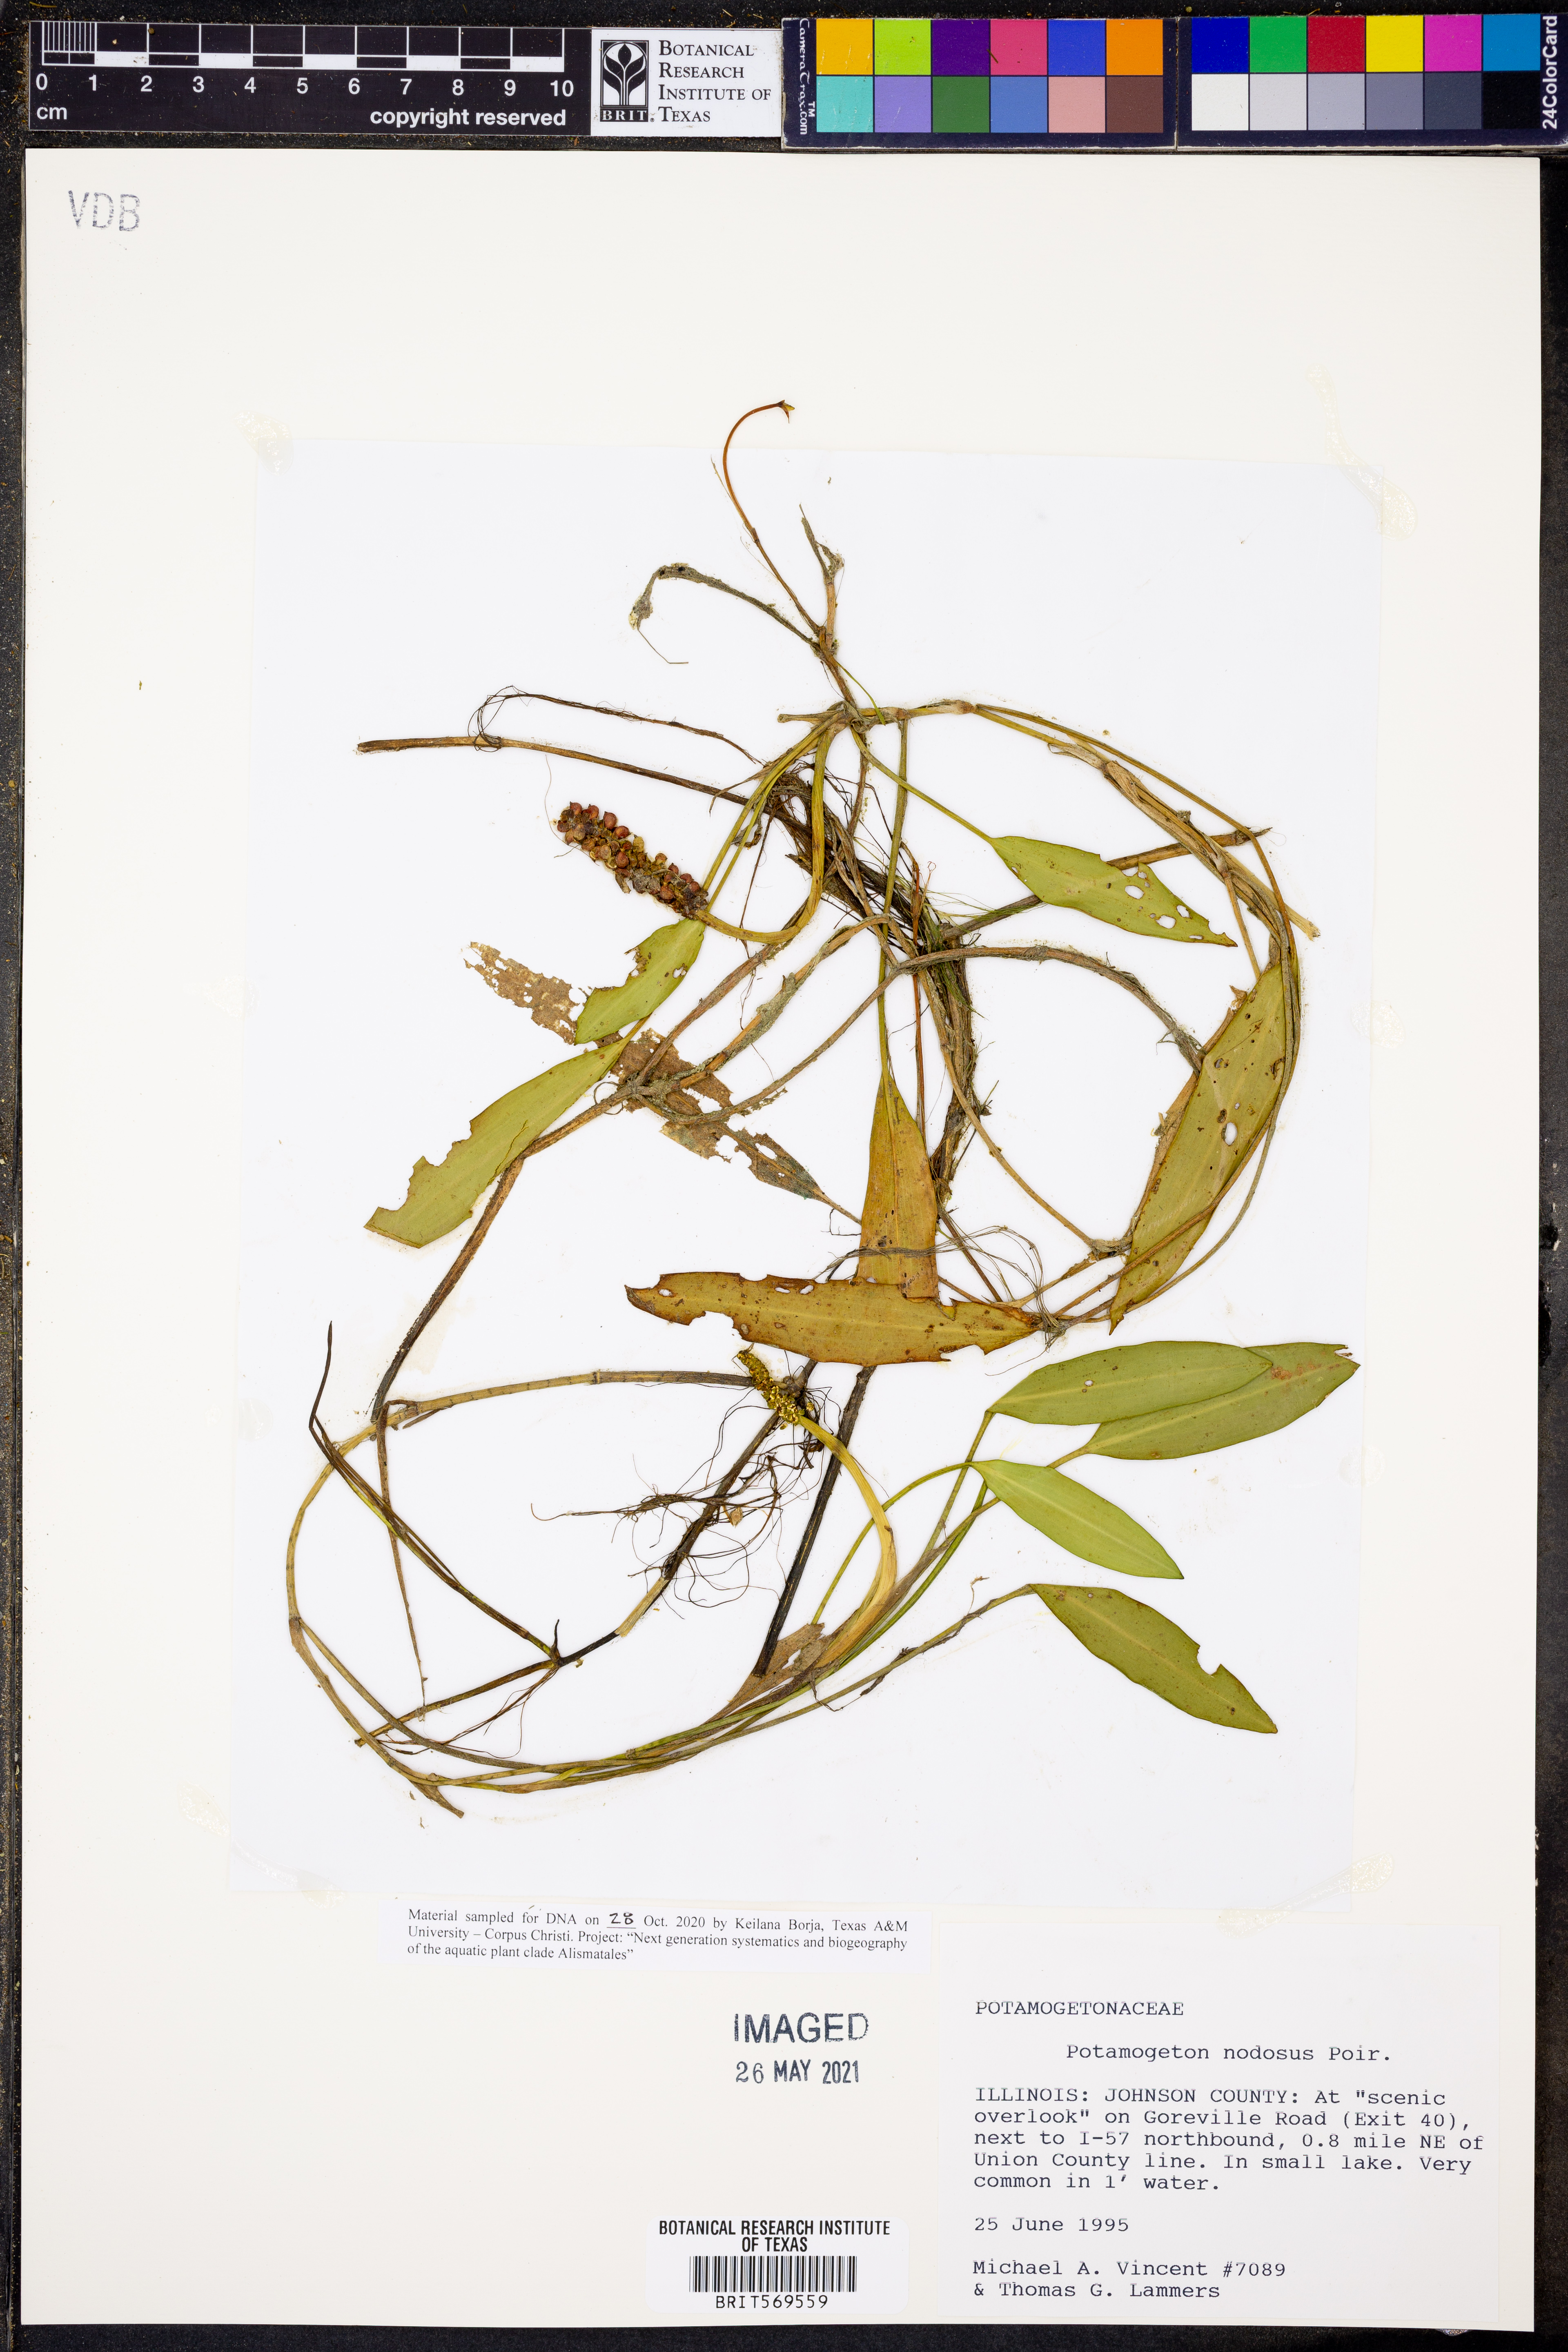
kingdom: Plantae
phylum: Tracheophyta
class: Liliopsida
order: Alismatales
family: Potamogetonaceae
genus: Potamogeton
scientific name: Potamogeton nodosus
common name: Loddon pondweed
